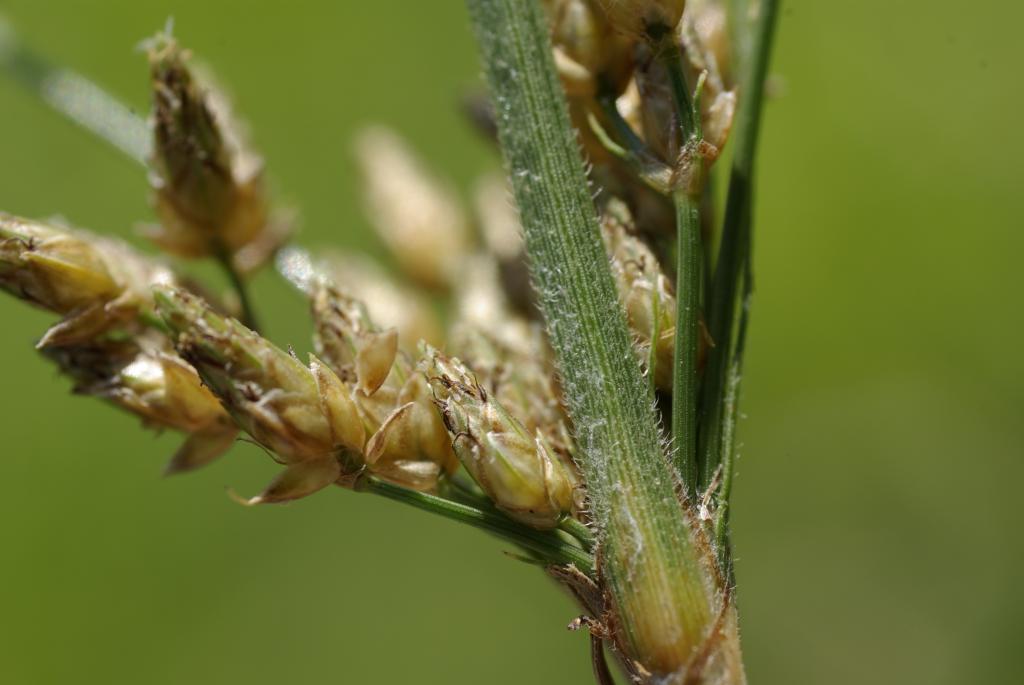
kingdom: Plantae
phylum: Tracheophyta
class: Liliopsida
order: Poales
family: Cyperaceae
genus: Fimbristylis
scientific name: Fimbristylis
